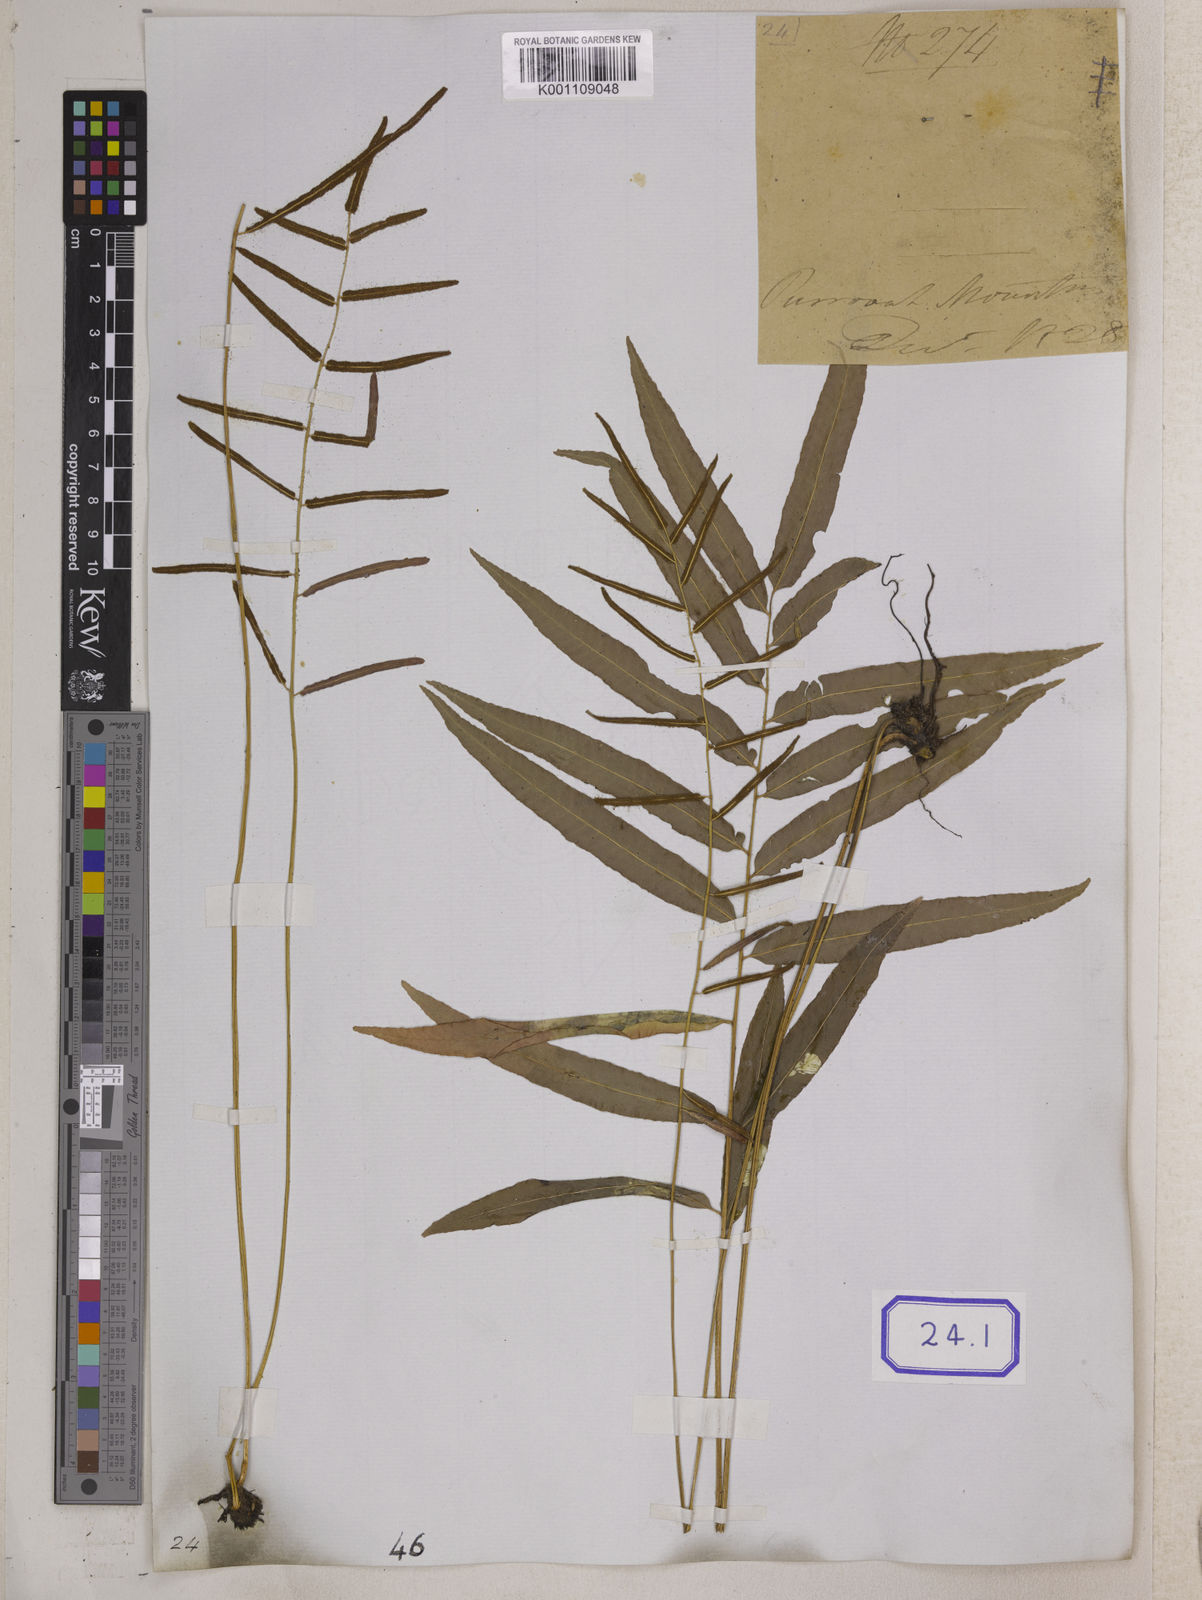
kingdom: Plantae
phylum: Tracheophyta
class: Polypodiopsida
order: Polypodiales
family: Dryopteridaceae
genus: Bolbitis
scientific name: Bolbitis crispatula
